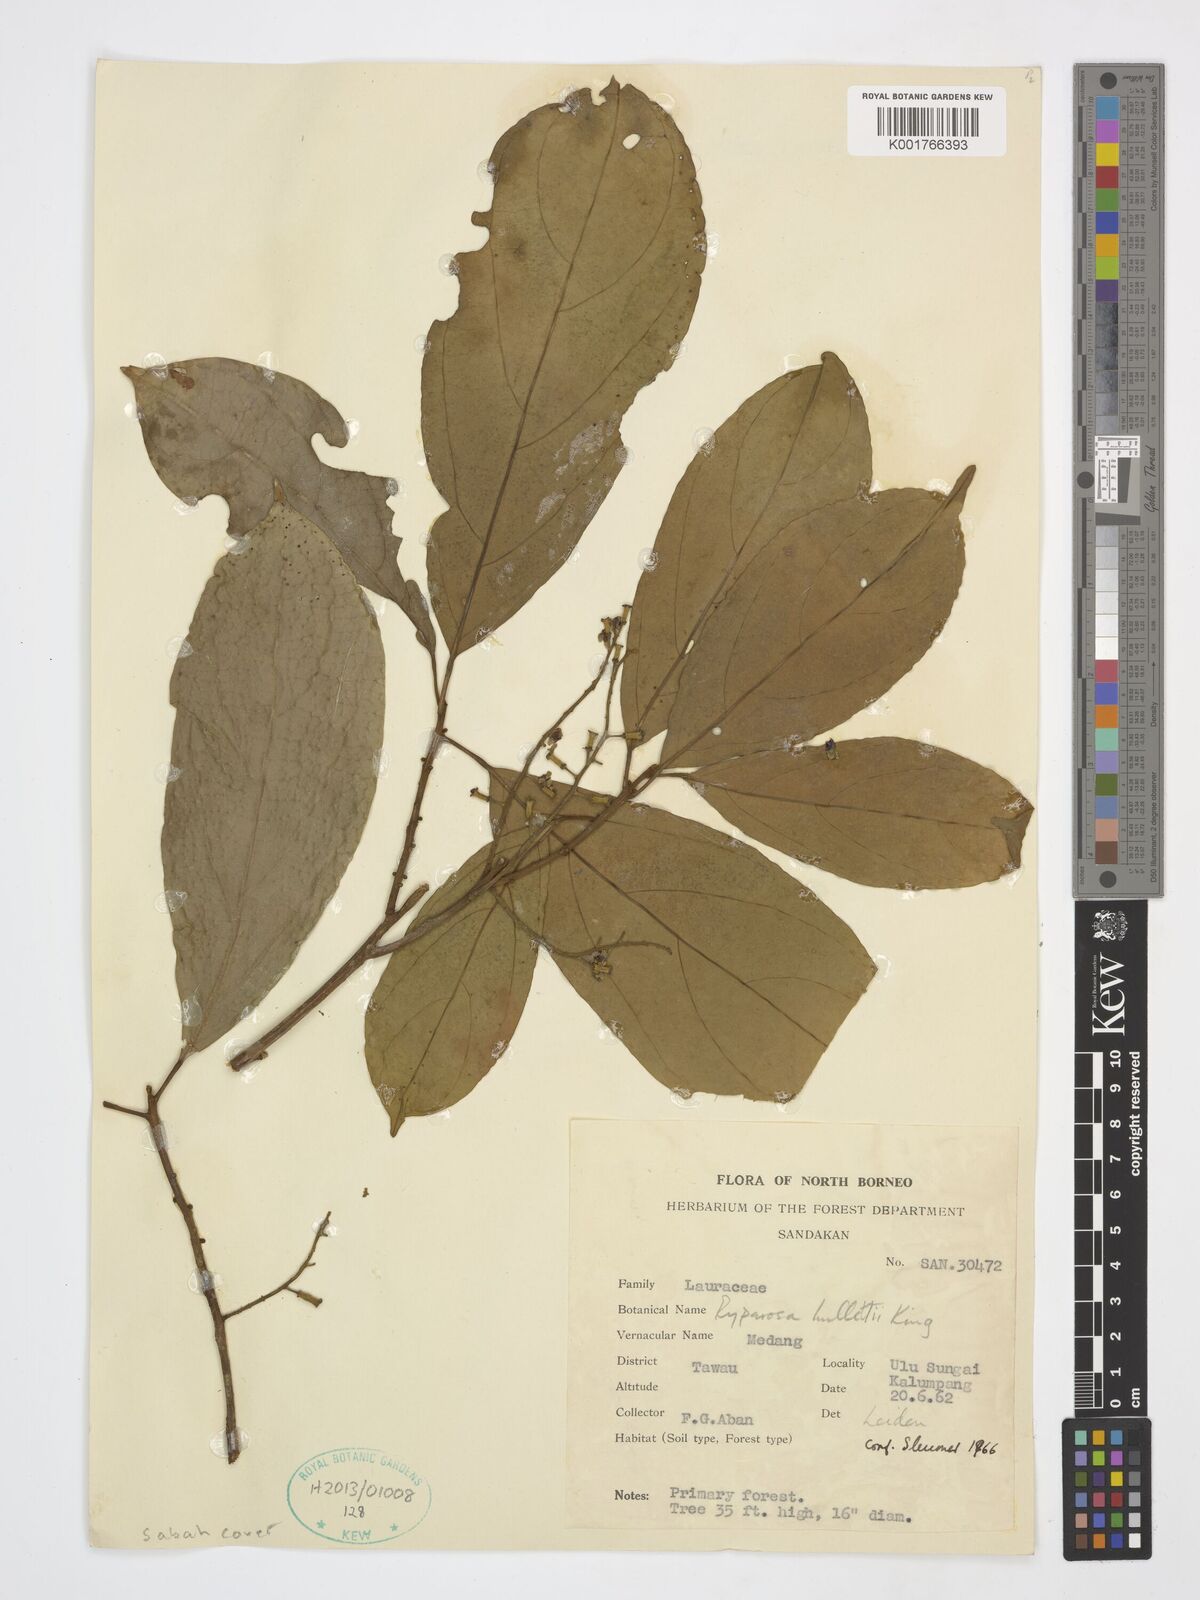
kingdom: Plantae
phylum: Tracheophyta
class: Magnoliopsida
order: Malpighiales
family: Achariaceae
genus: Ryparosa
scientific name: Ryparosa hullettii
